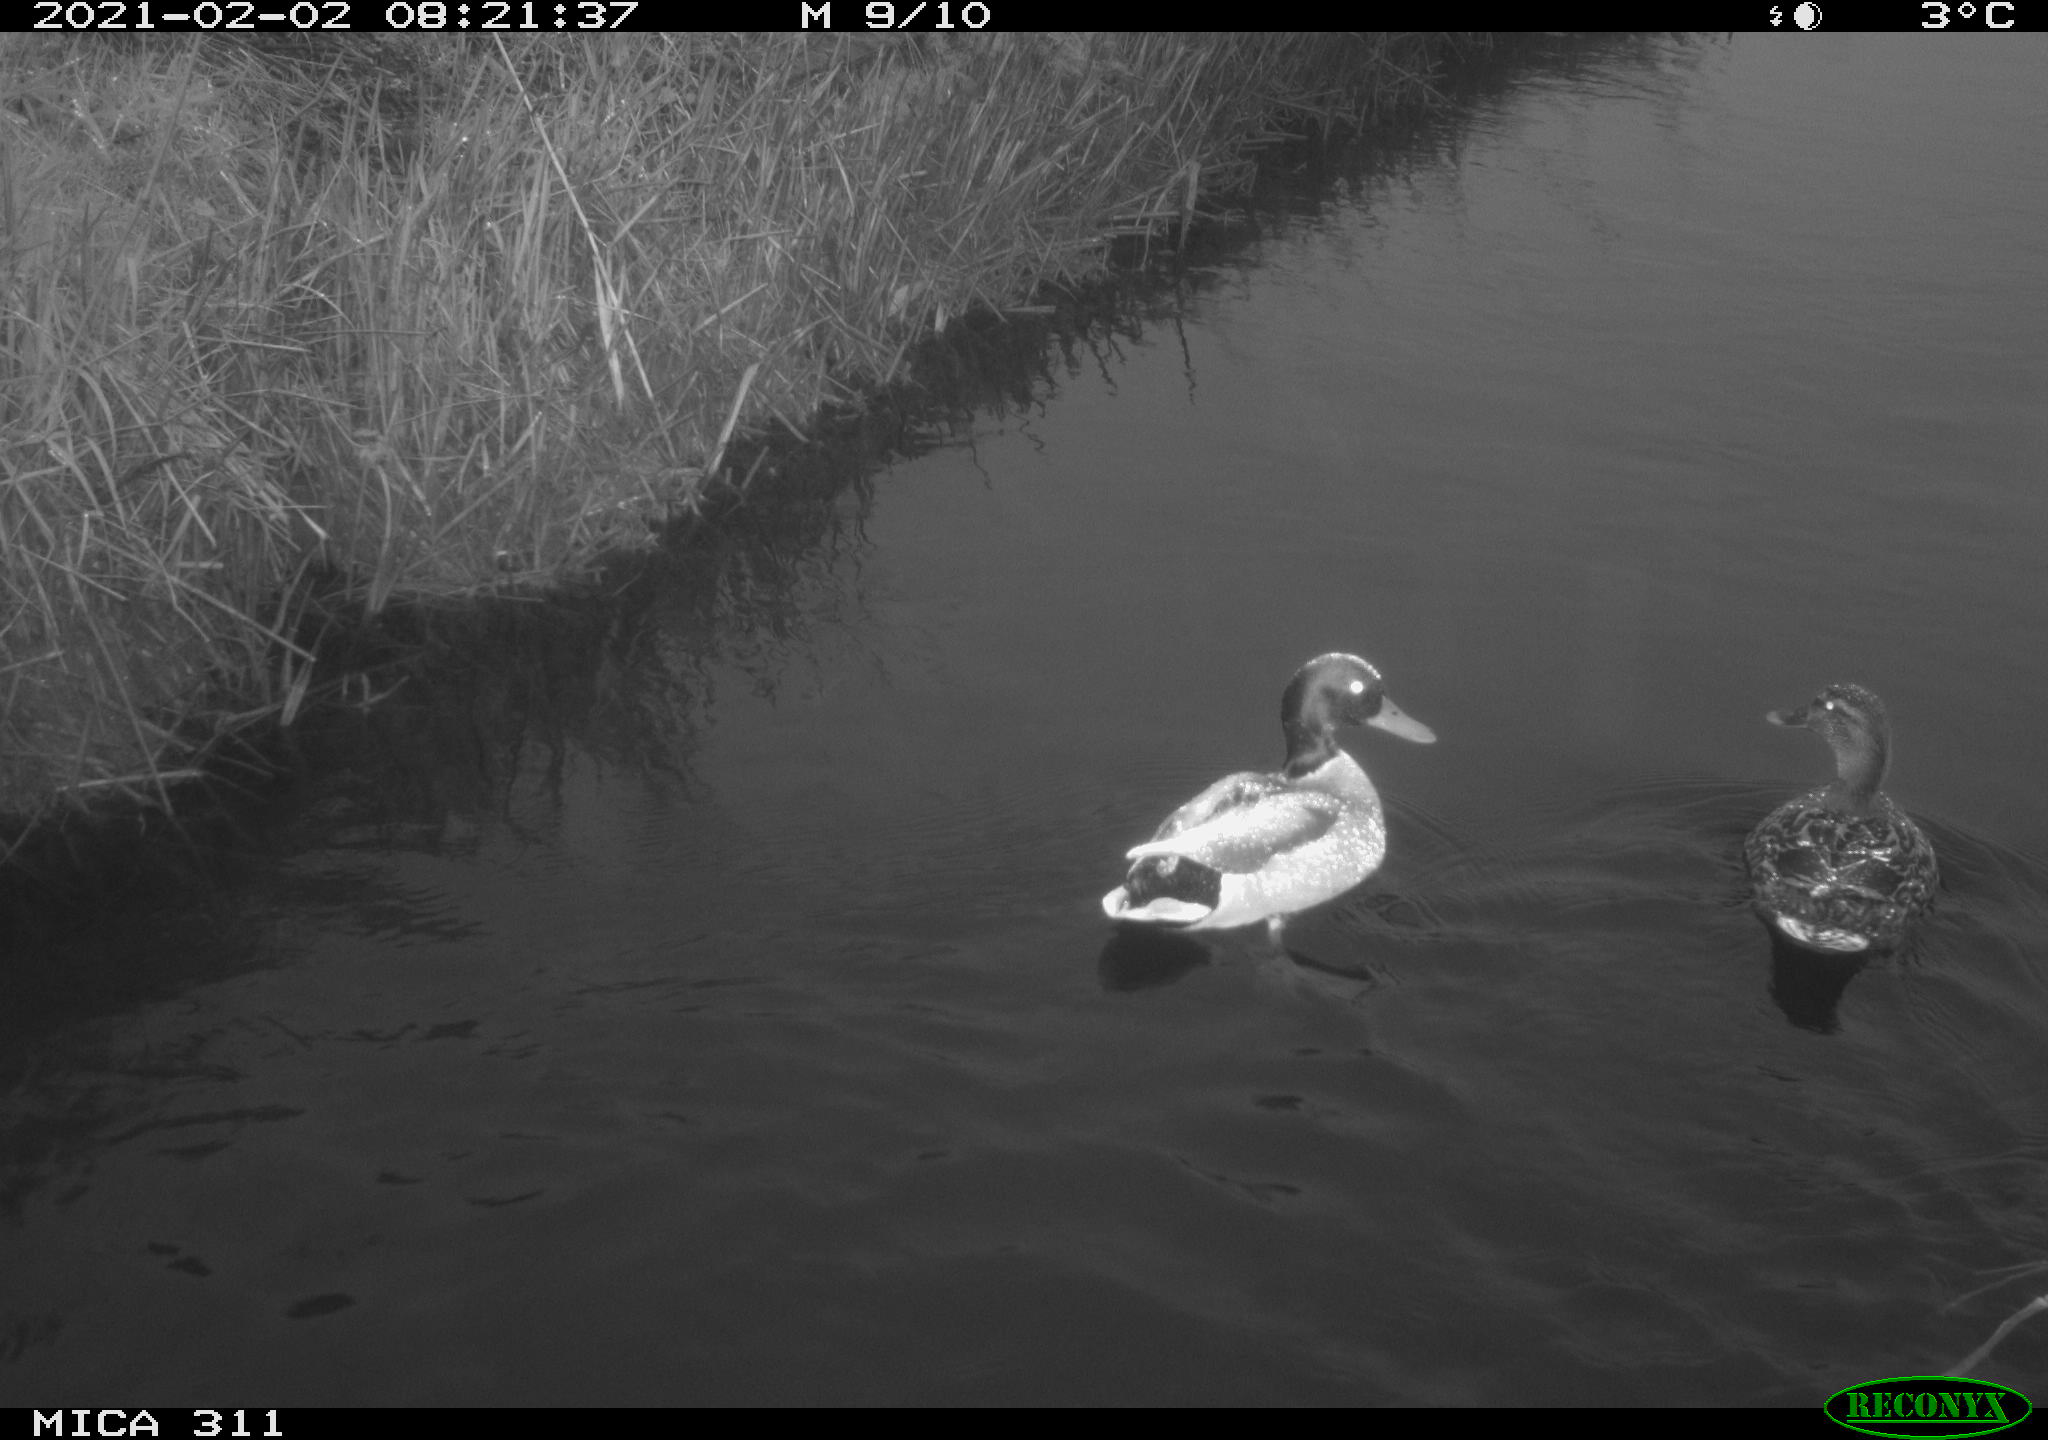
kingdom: Animalia
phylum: Chordata
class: Aves
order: Anseriformes
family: Anatidae
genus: Anas
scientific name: Anas
